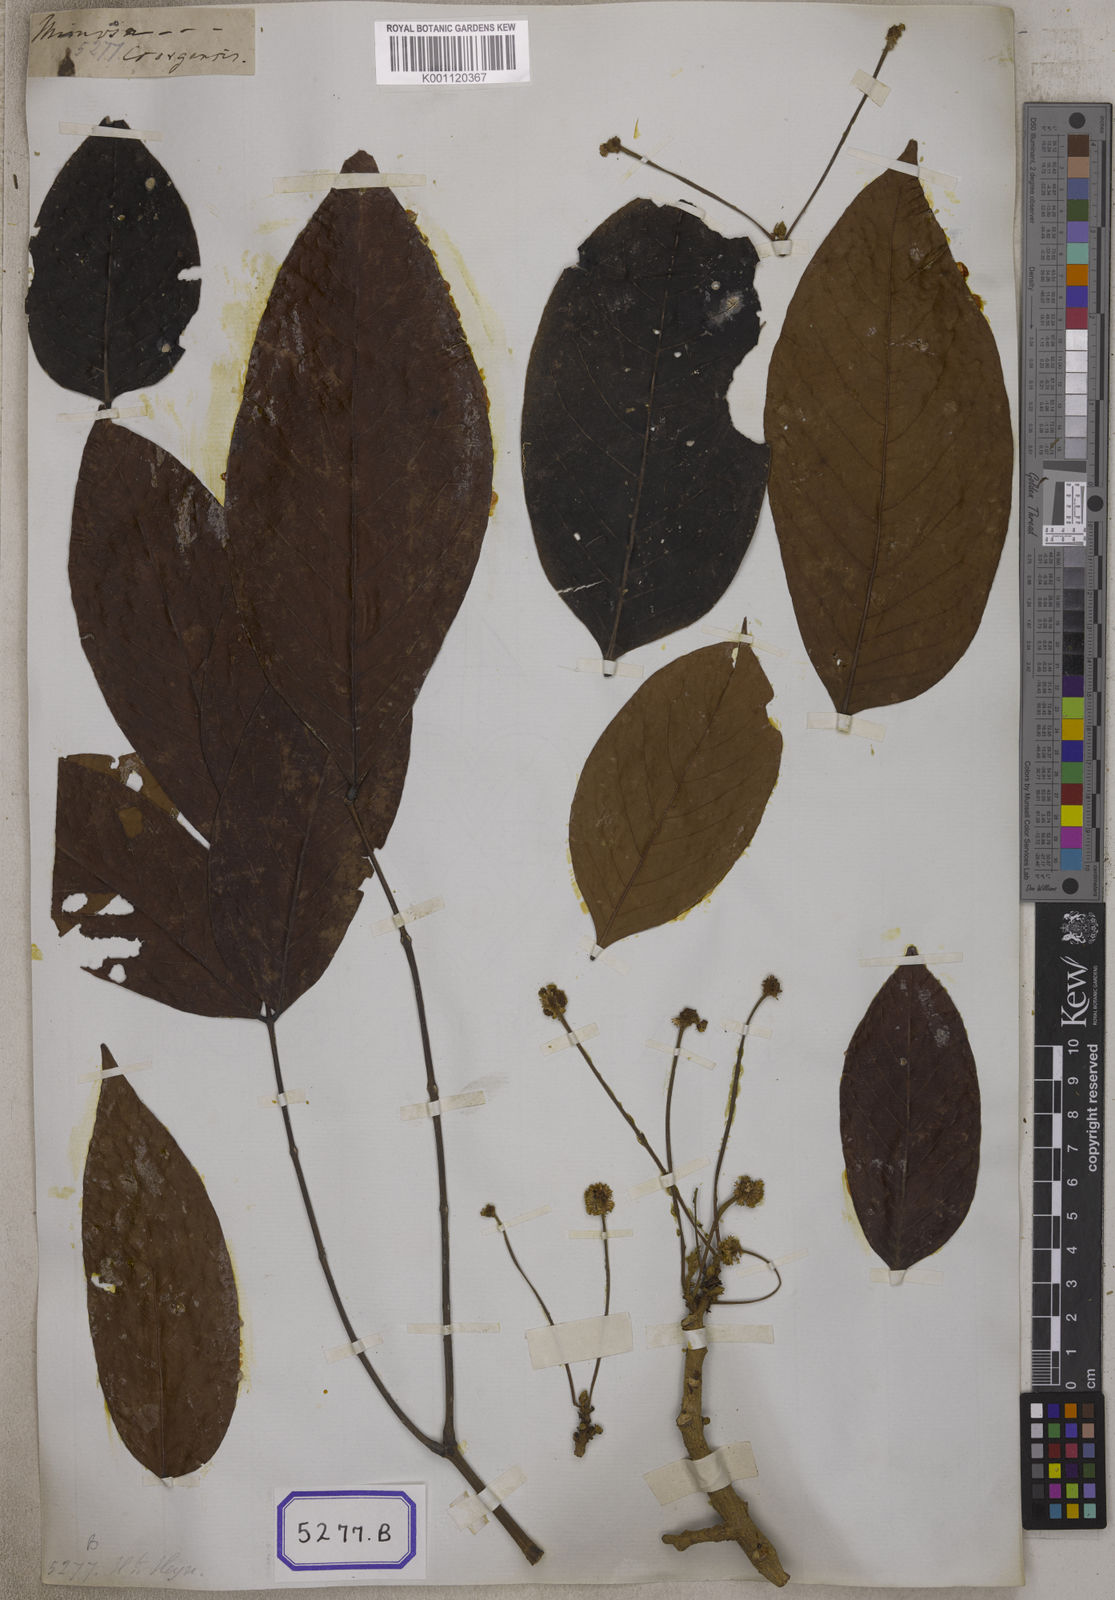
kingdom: Plantae
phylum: Tracheophyta
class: Magnoliopsida
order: Fabales
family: Fabaceae
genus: Xylia
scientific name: Xylia xylocarpa
